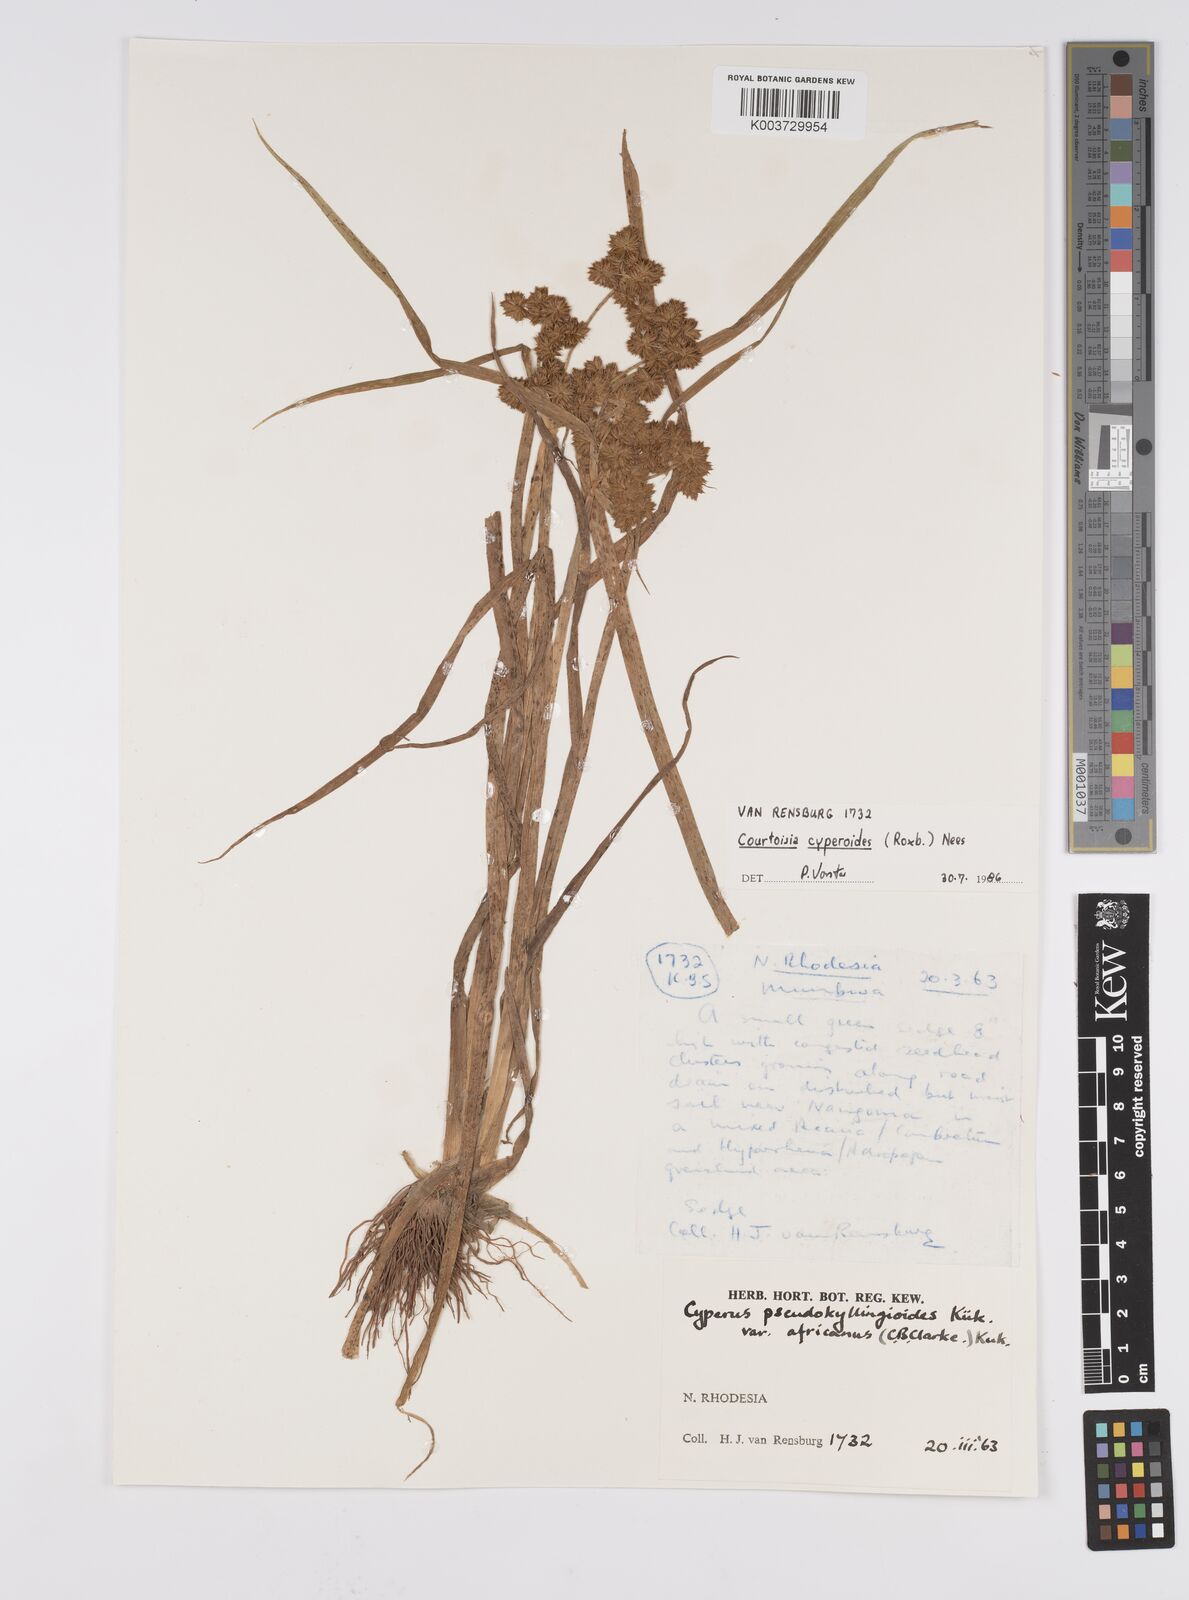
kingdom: Plantae
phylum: Tracheophyta
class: Liliopsida
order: Poales
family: Cyperaceae
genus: Cyperus
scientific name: Cyperus cyperoides
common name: Pacific island flat sedge
